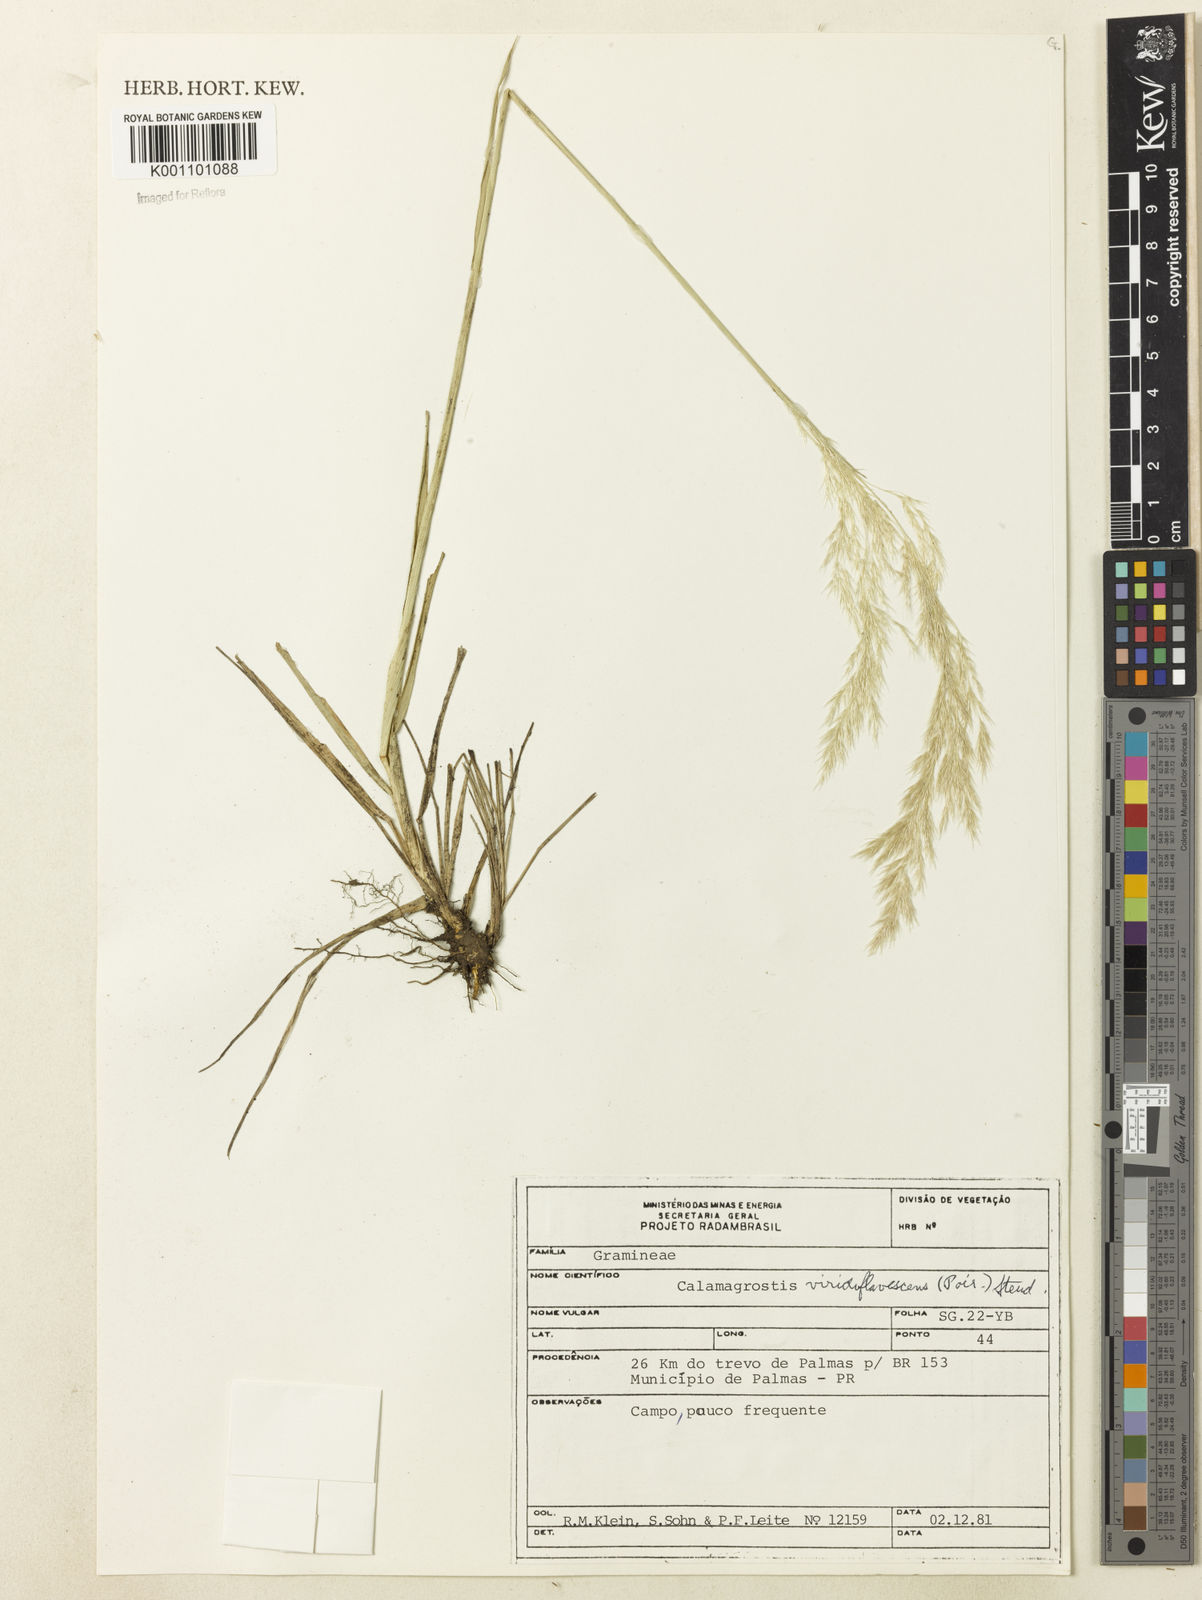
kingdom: Plantae
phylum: Tracheophyta
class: Liliopsida
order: Poales
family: Poaceae
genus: Cinnagrostis
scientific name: Cinnagrostis viridiflavescens
